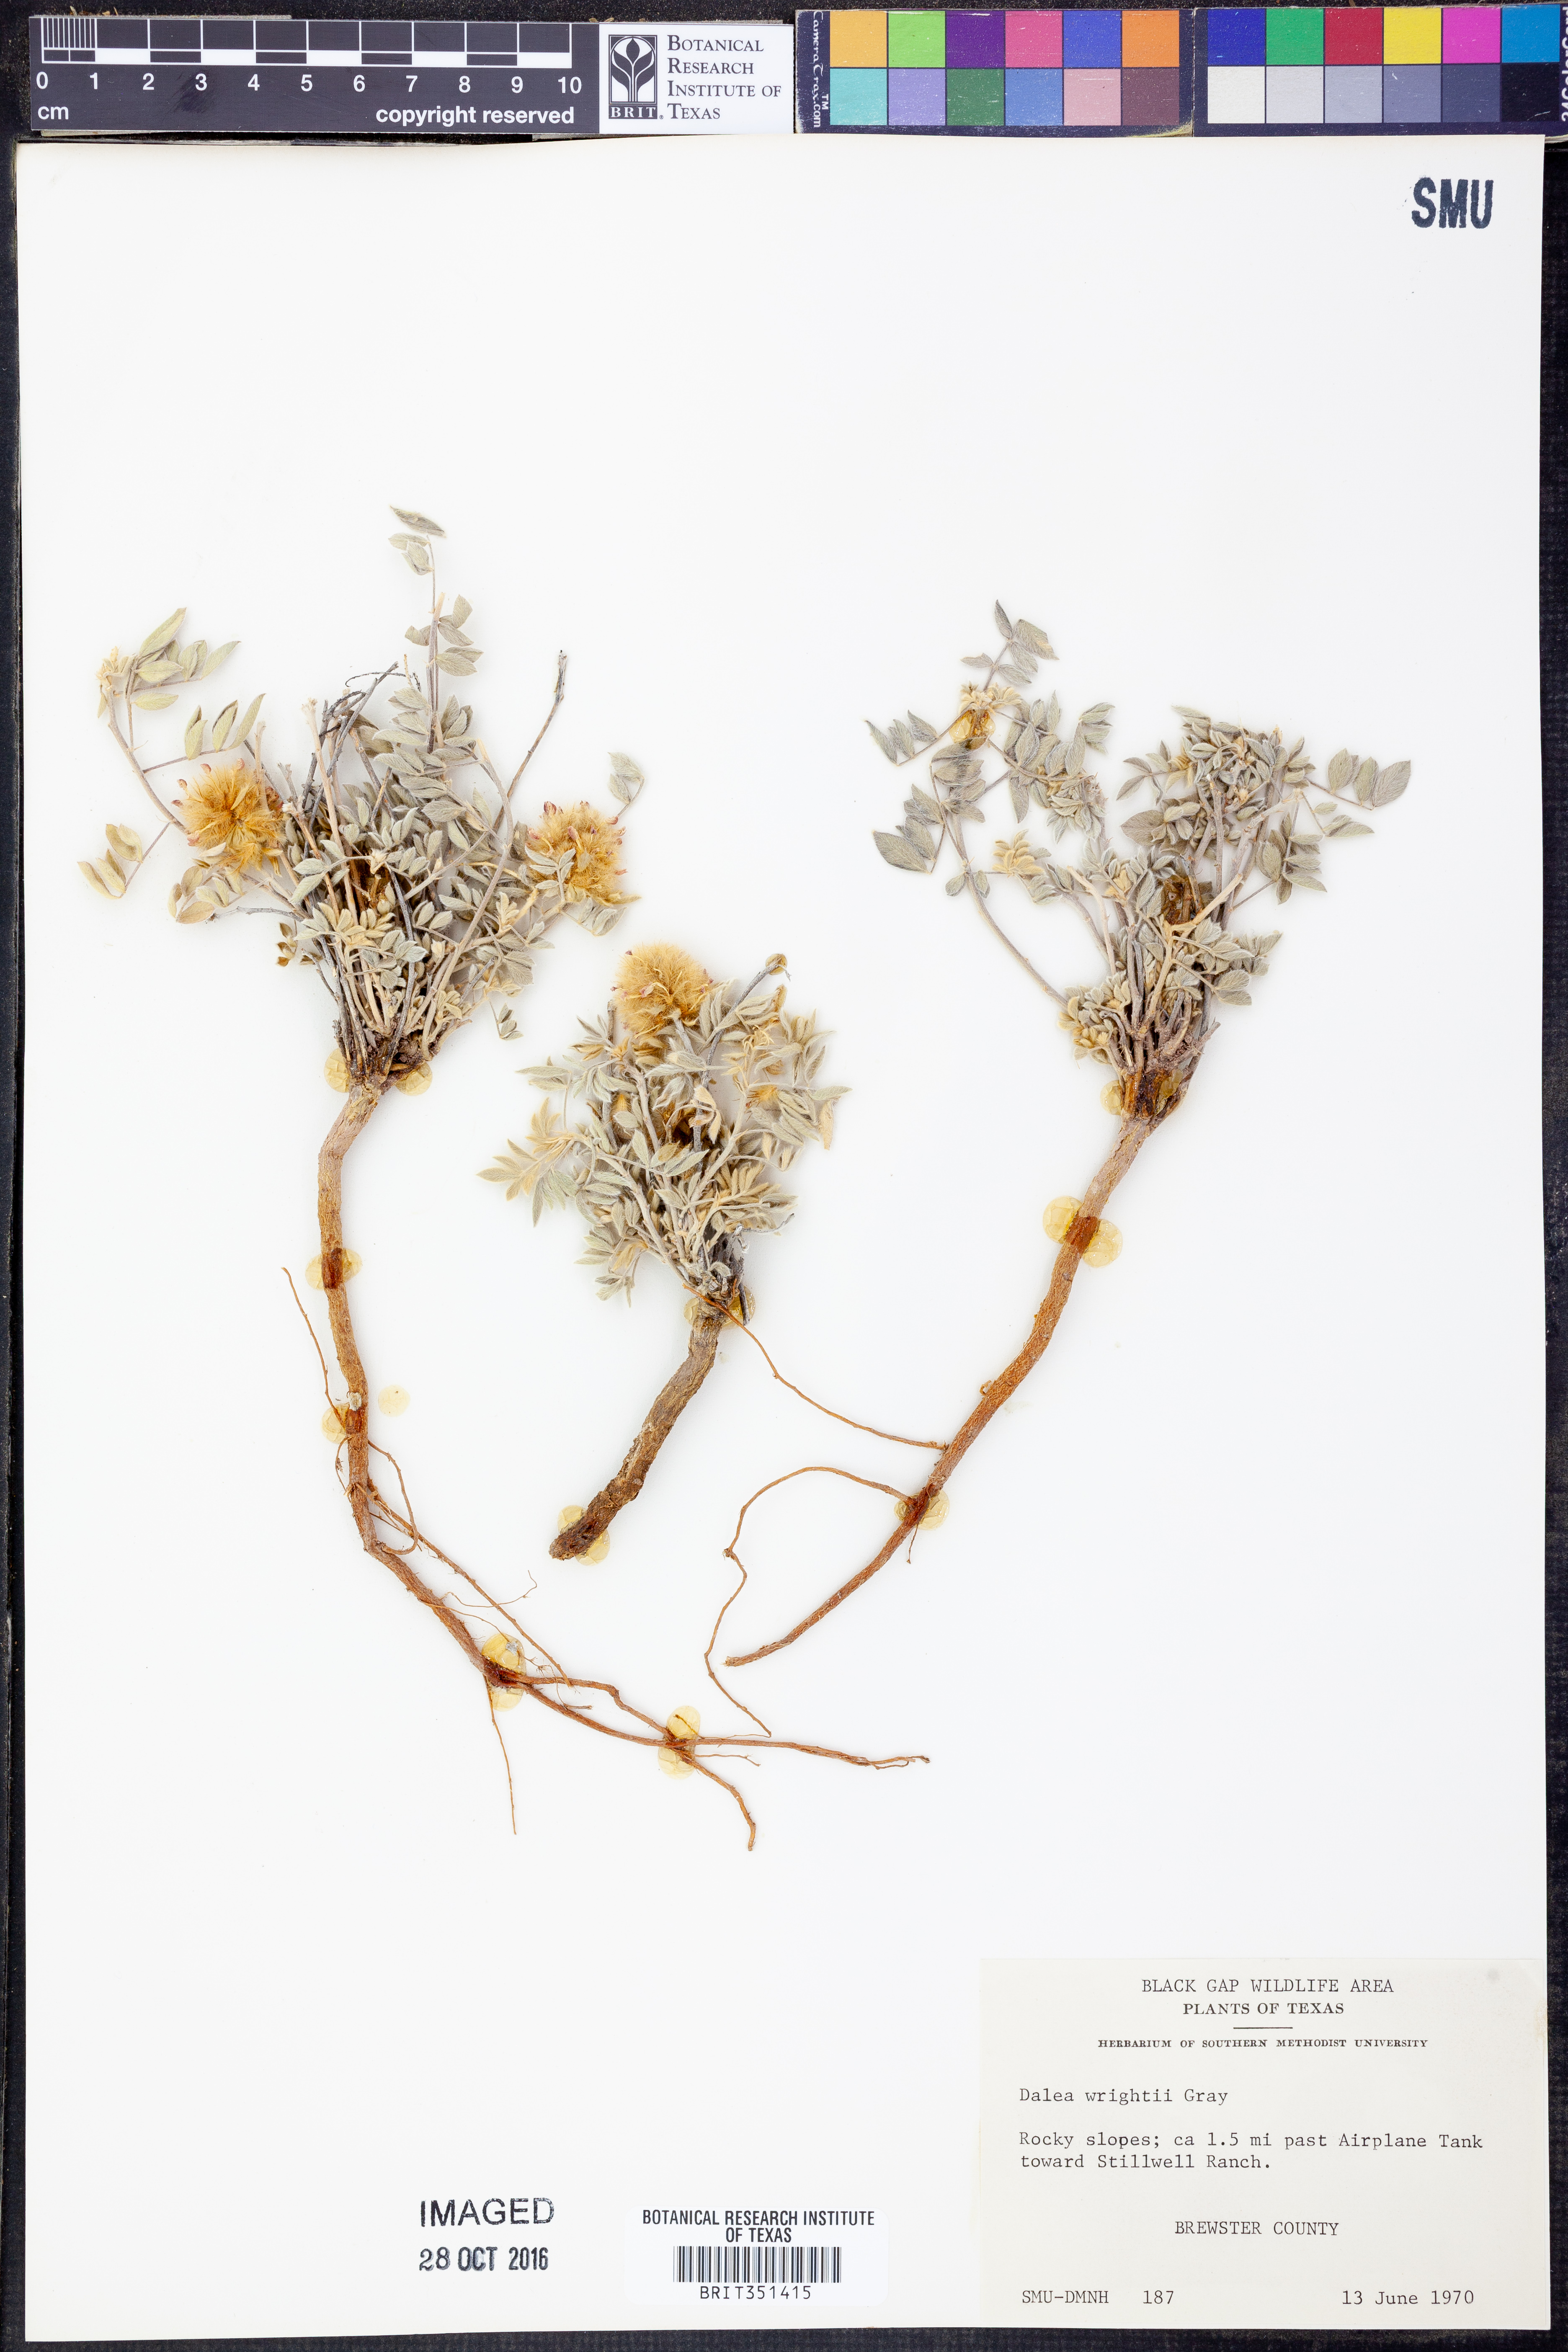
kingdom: Plantae
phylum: Tracheophyta
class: Magnoliopsida
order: Fabales
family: Fabaceae
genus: Dalea
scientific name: Dalea wrightii
